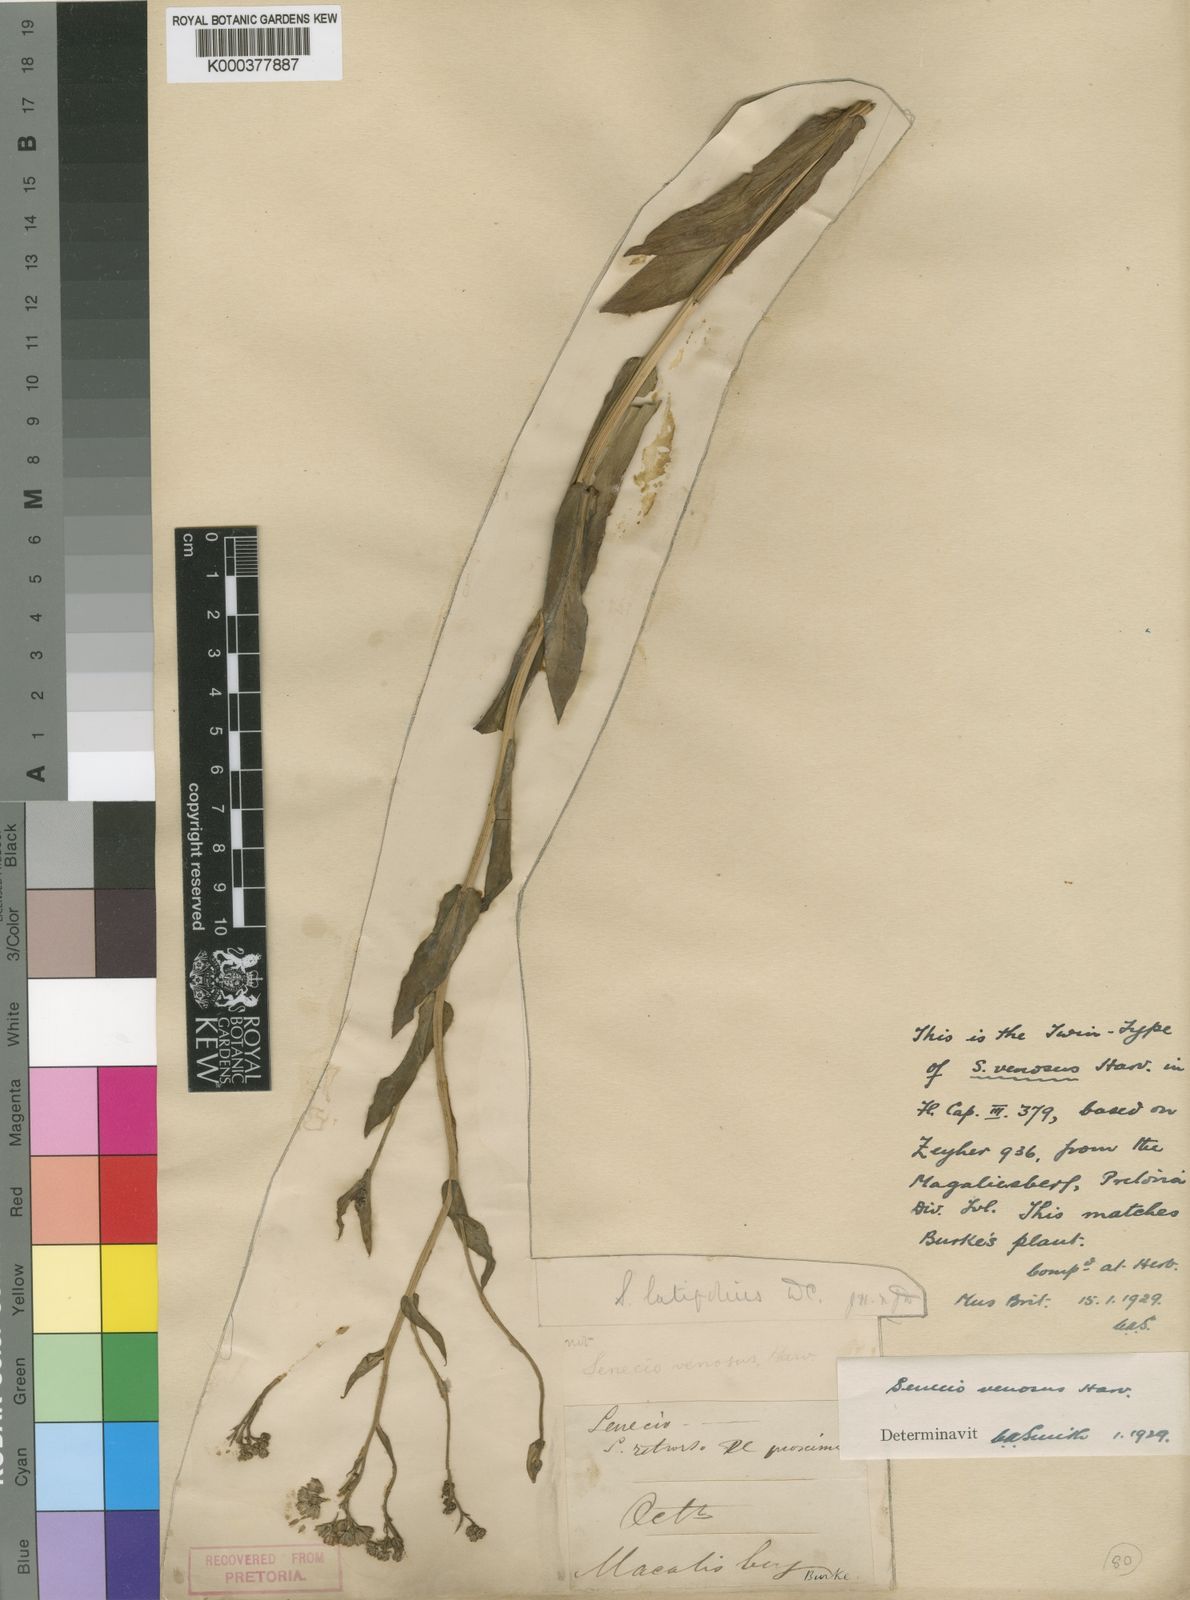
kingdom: Plantae
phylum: Tracheophyta
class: Magnoliopsida
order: Asterales
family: Asteraceae
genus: Senecio
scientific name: Senecio venosus
